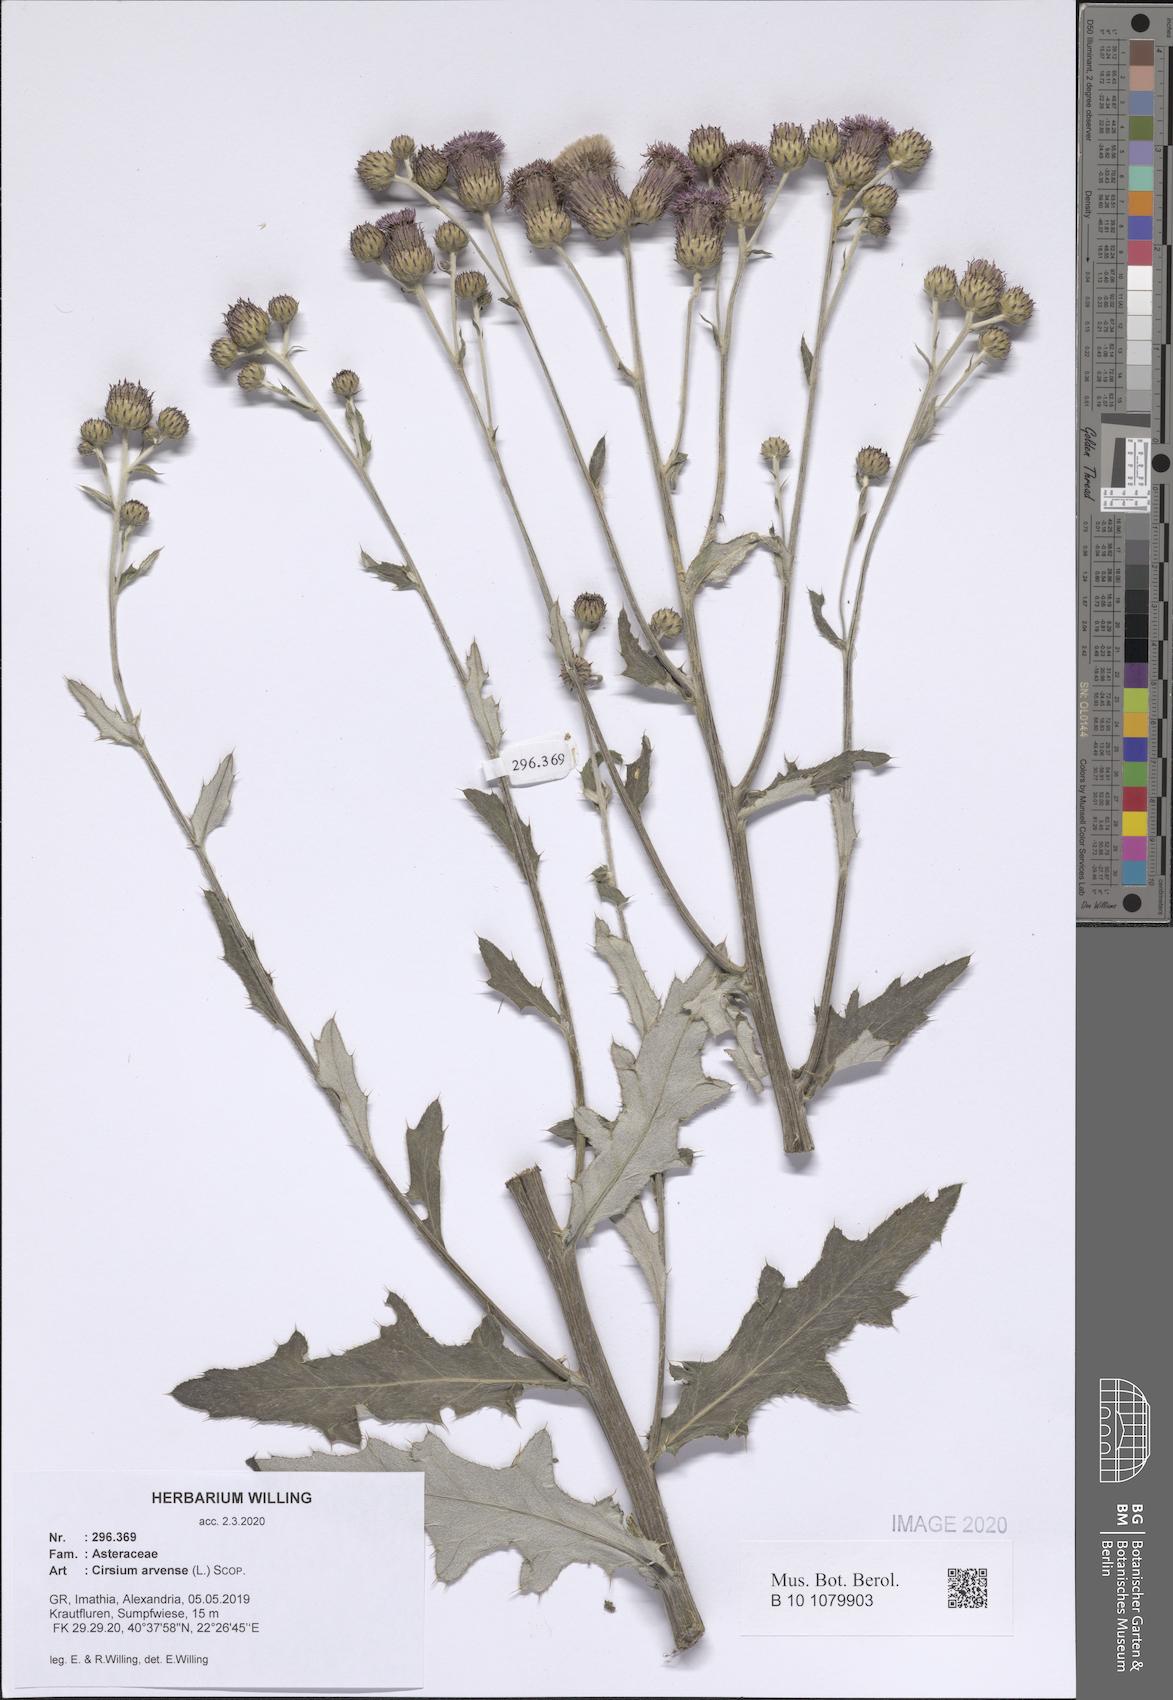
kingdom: Plantae
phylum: Tracheophyta
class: Magnoliopsida
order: Asterales
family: Asteraceae
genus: Cirsium
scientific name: Cirsium arvense
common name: Creeping thistle
